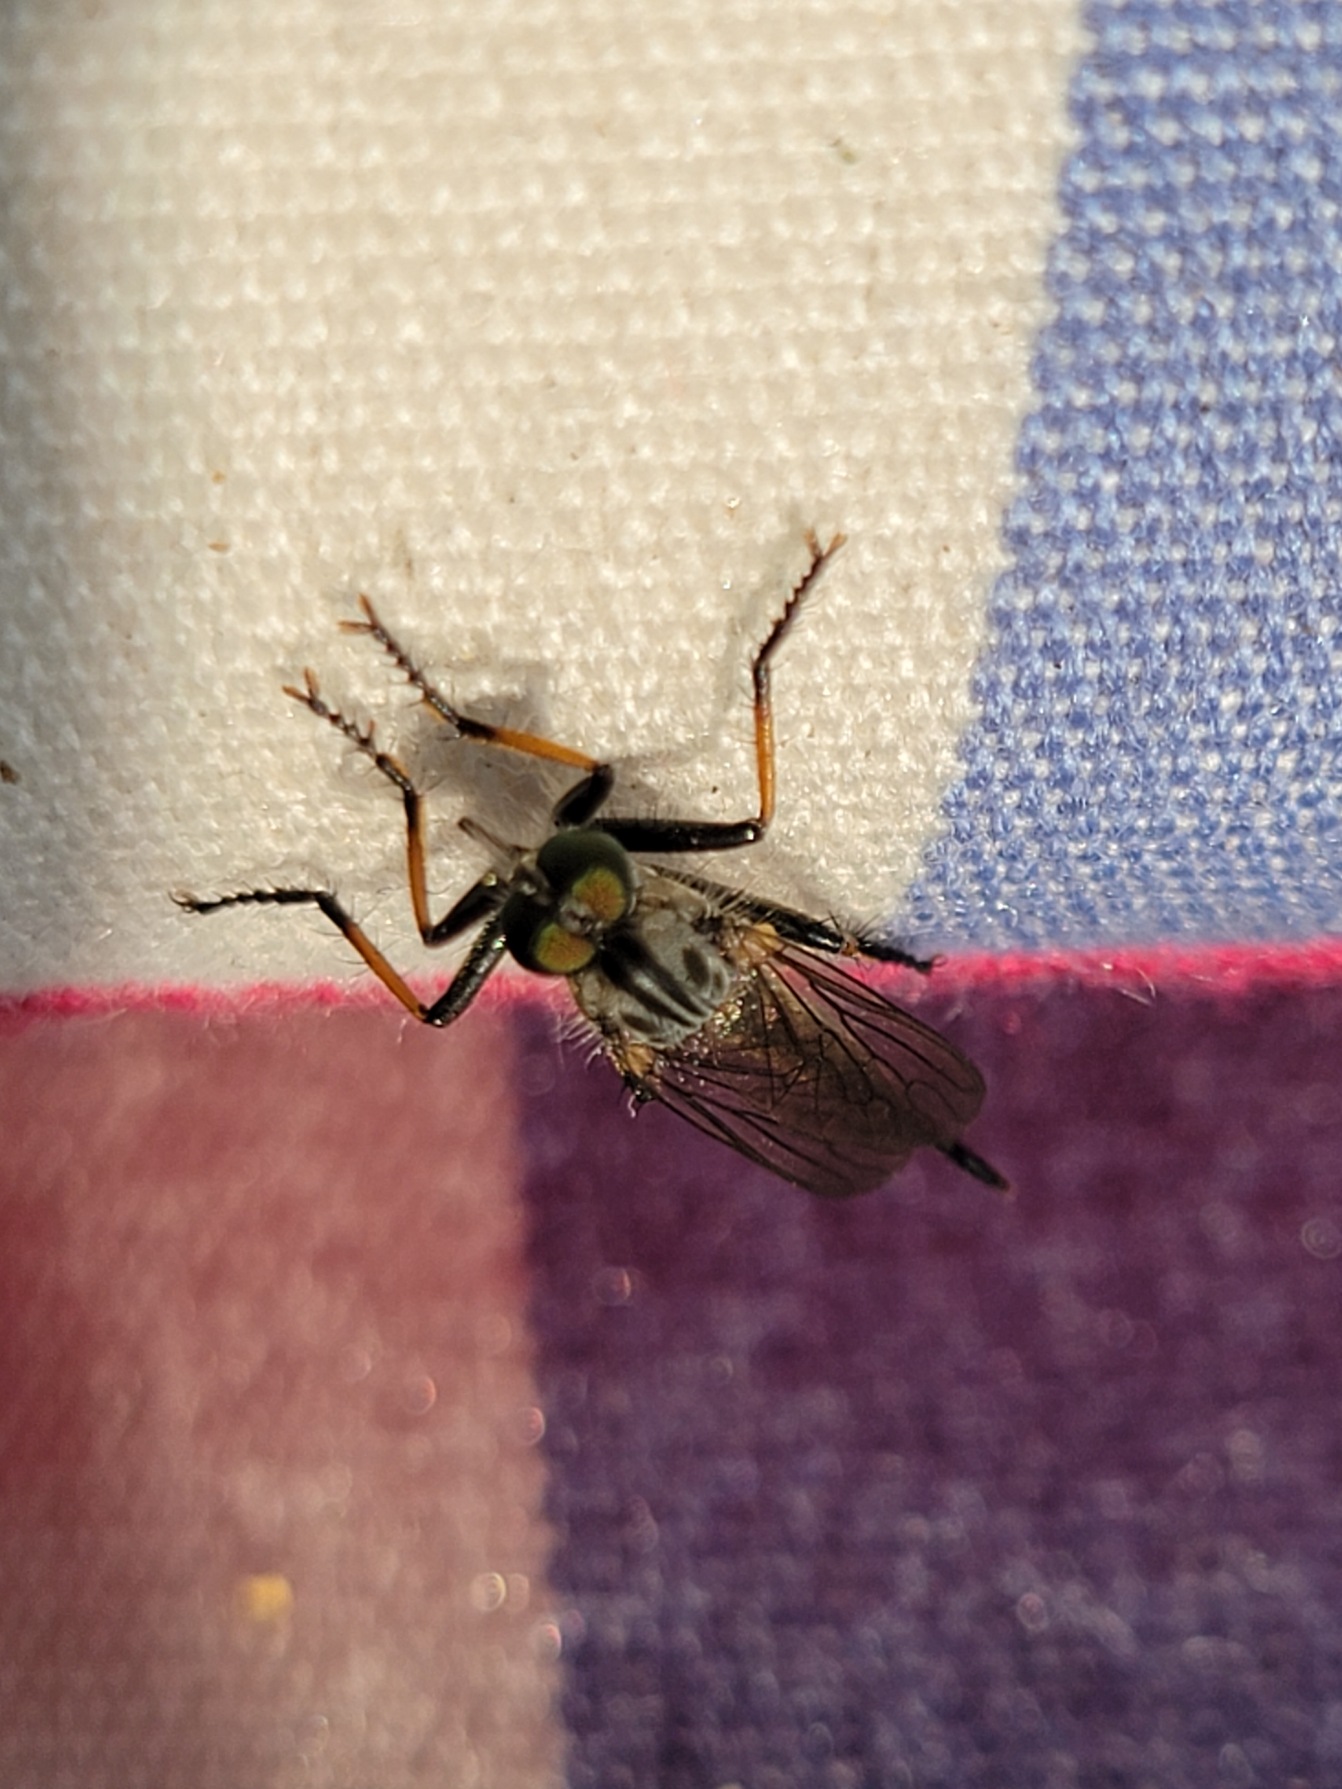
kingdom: Animalia
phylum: Arthropoda
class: Insecta
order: Diptera
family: Asilidae
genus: Neoitamus
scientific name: Neoitamus cyanurus
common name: Sortfodet skovrovflue
